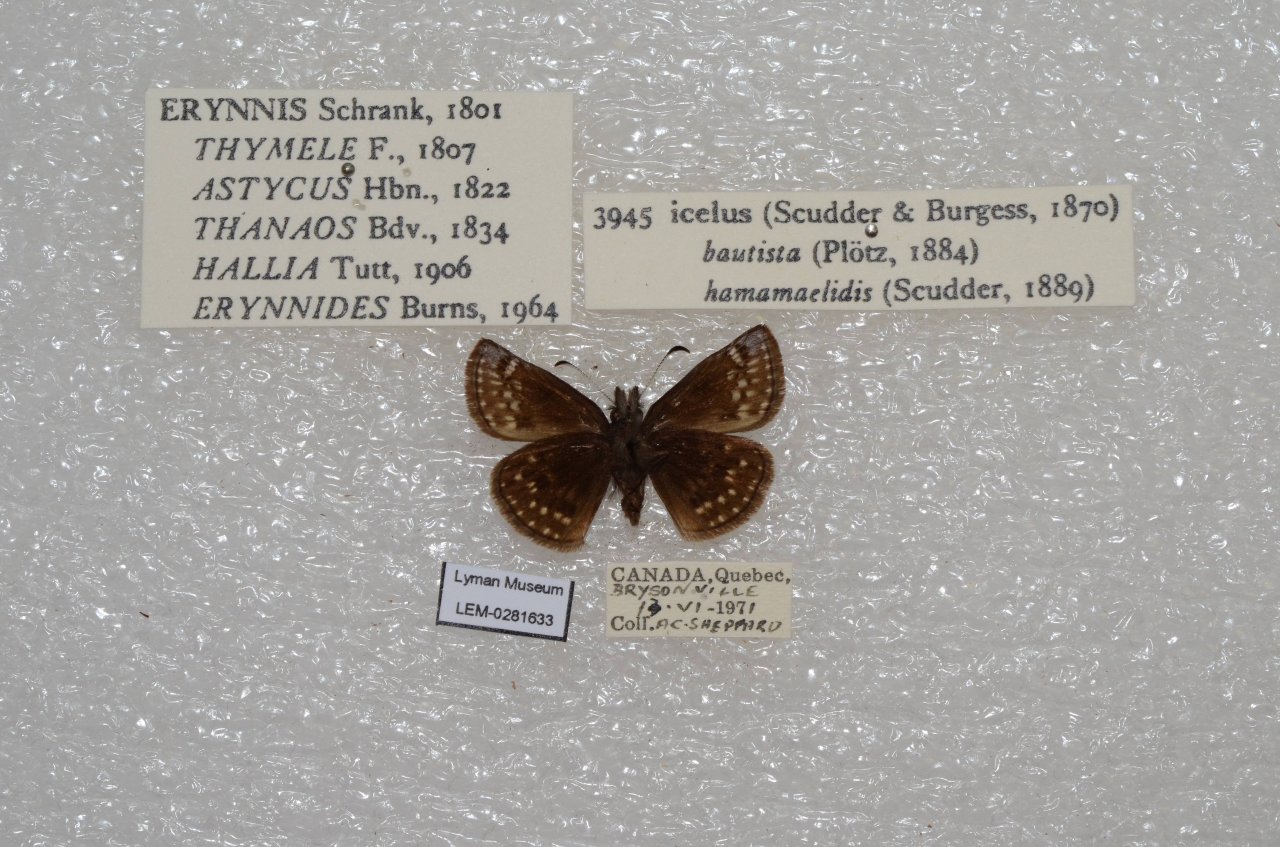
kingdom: Animalia
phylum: Arthropoda
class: Insecta
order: Lepidoptera
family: Hesperiidae
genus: Erynnis
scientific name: Erynnis icelus
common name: Dreamy Duskywing
